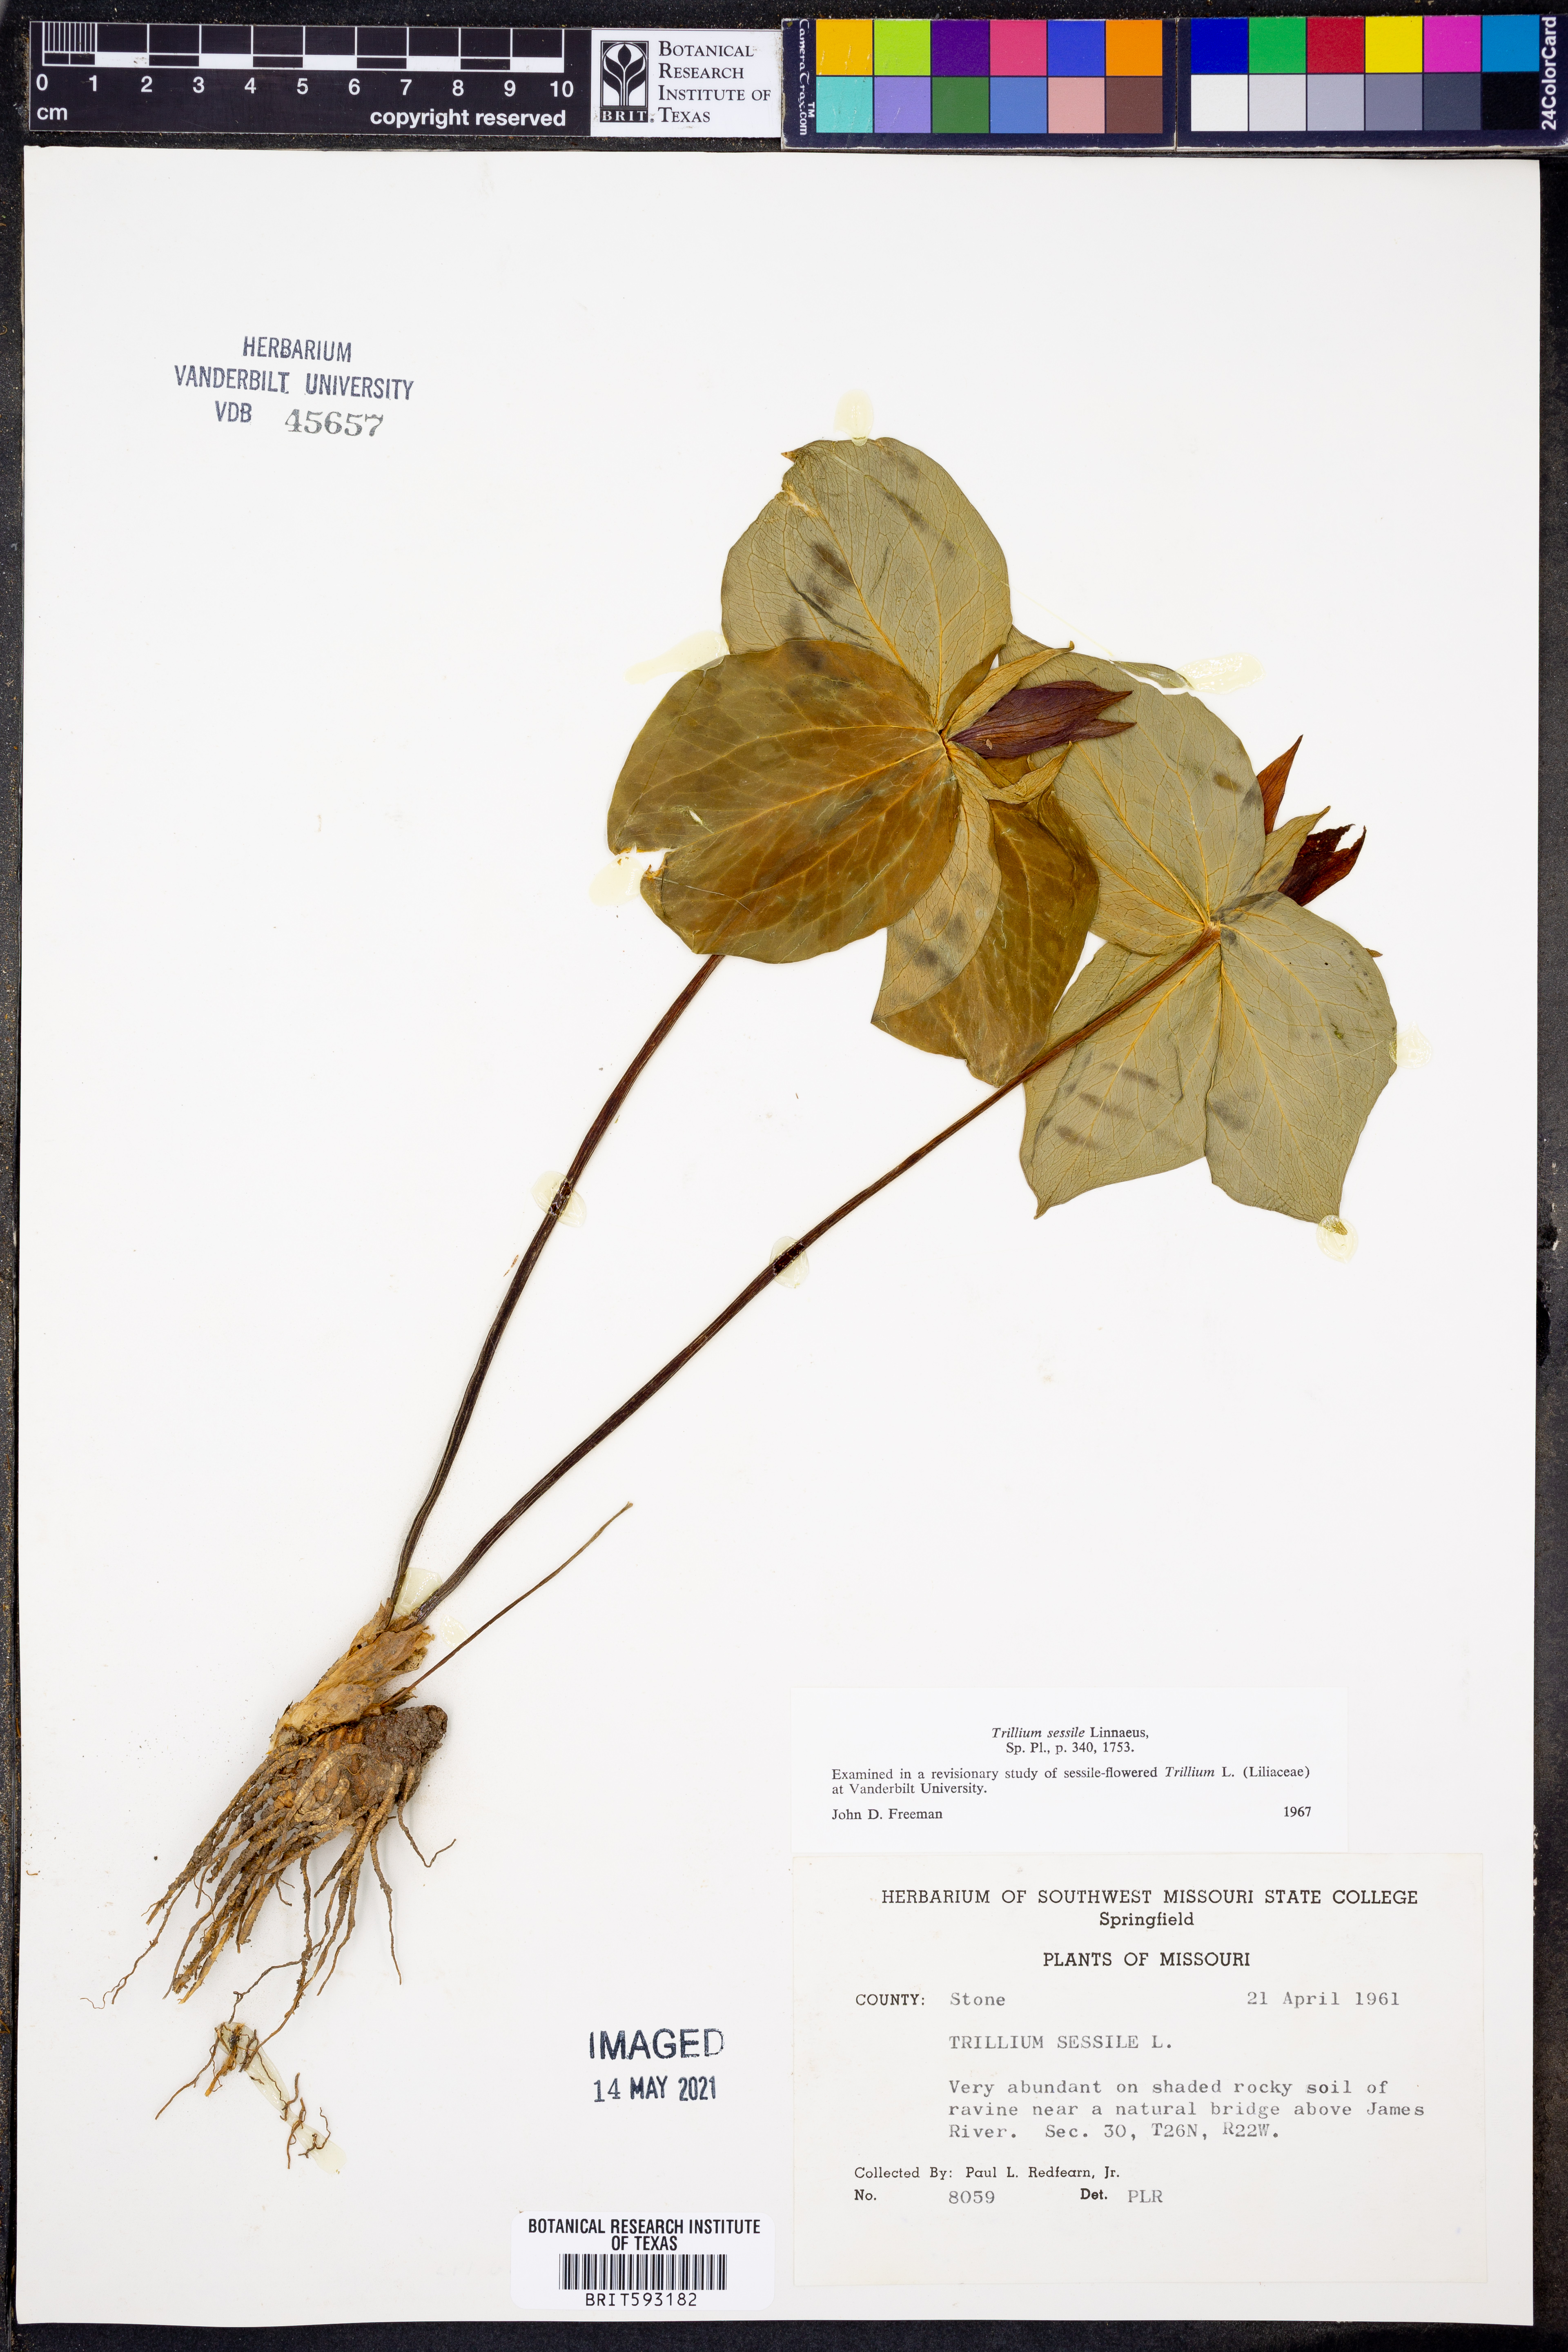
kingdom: Plantae
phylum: Tracheophyta
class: Liliopsida
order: Liliales
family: Melanthiaceae
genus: Trillium
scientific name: Trillium sessile
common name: Sessile trillium
